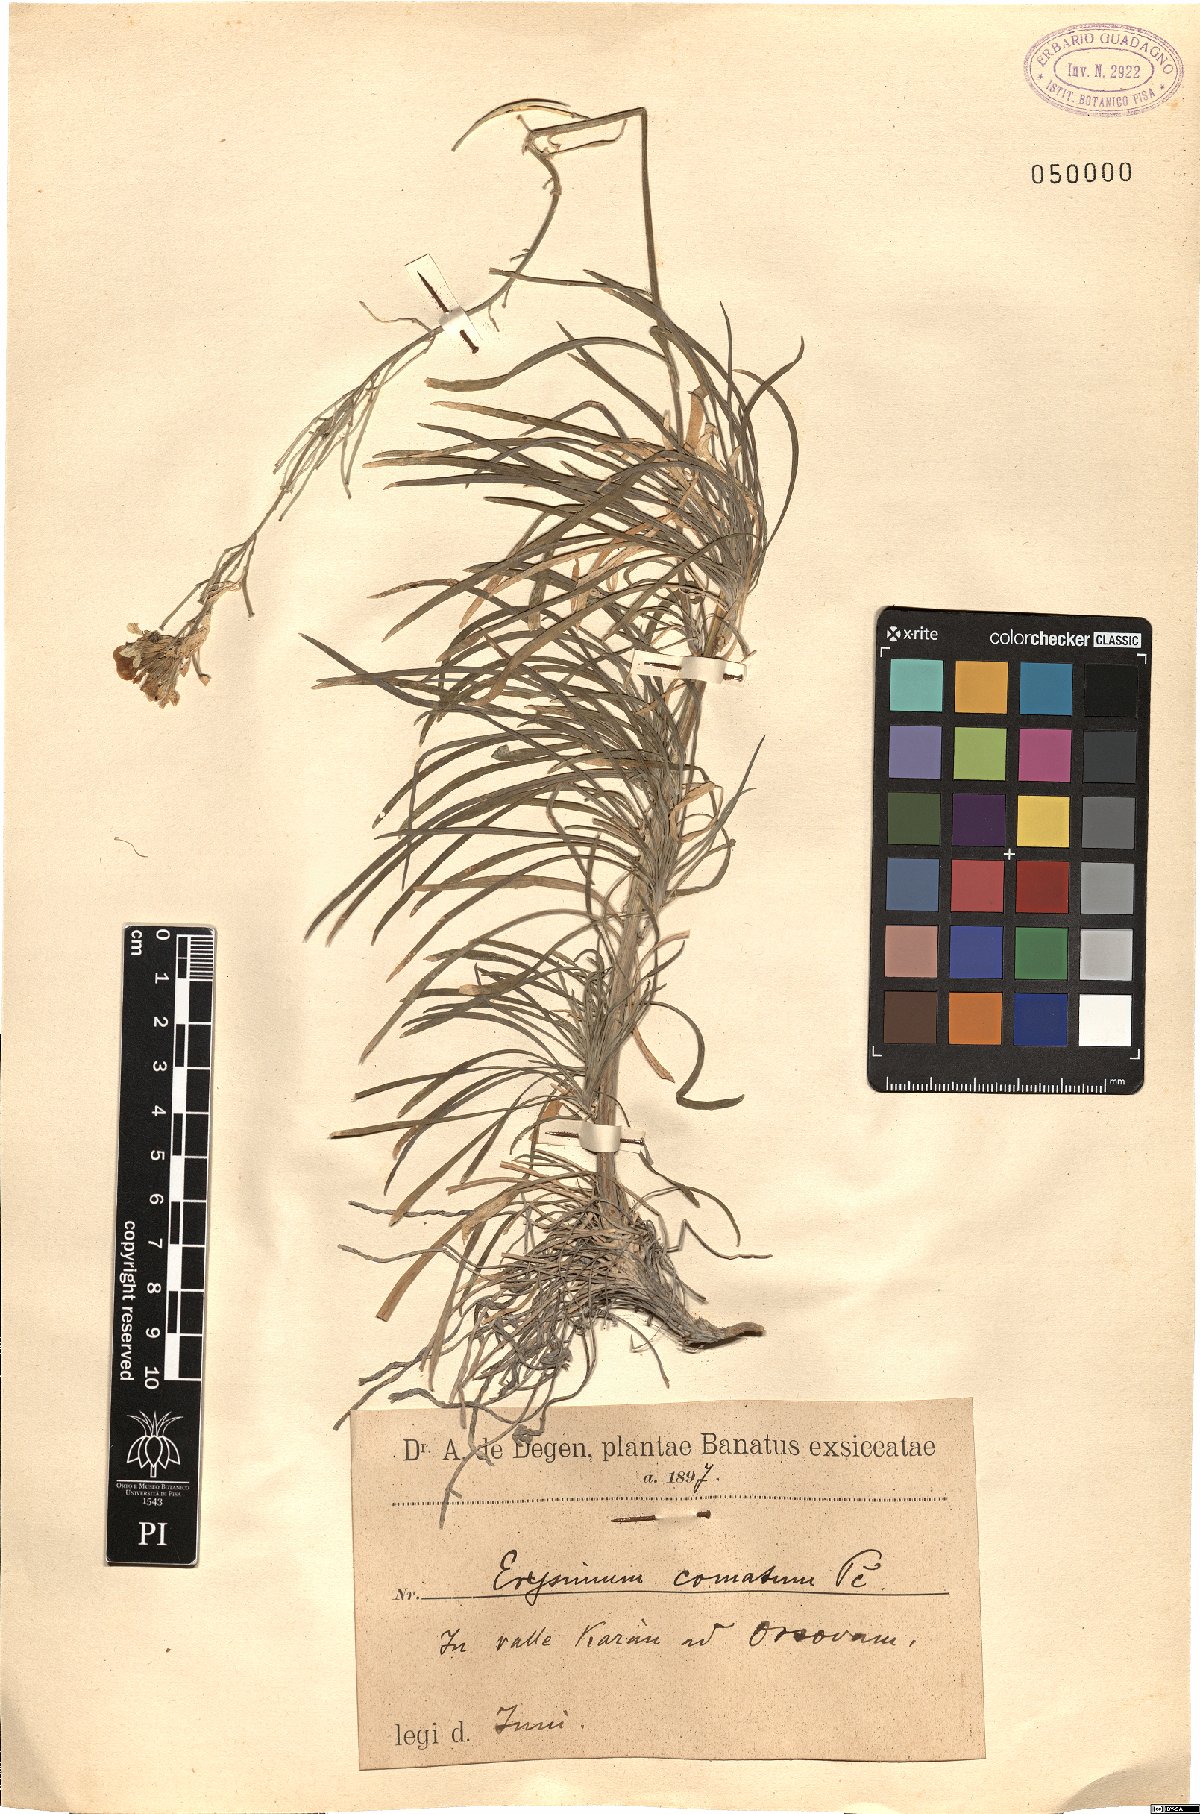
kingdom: Plantae
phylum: Tracheophyta
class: Magnoliopsida
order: Brassicales
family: Brassicaceae
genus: Erysimum
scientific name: Erysimum comatum
